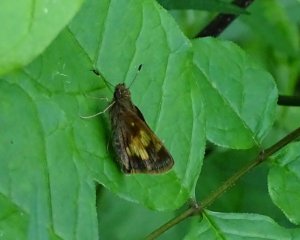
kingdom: Animalia
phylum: Arthropoda
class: Insecta
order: Lepidoptera
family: Hesperiidae
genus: Lon
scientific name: Lon hobomok
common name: Hobomok Skipper
